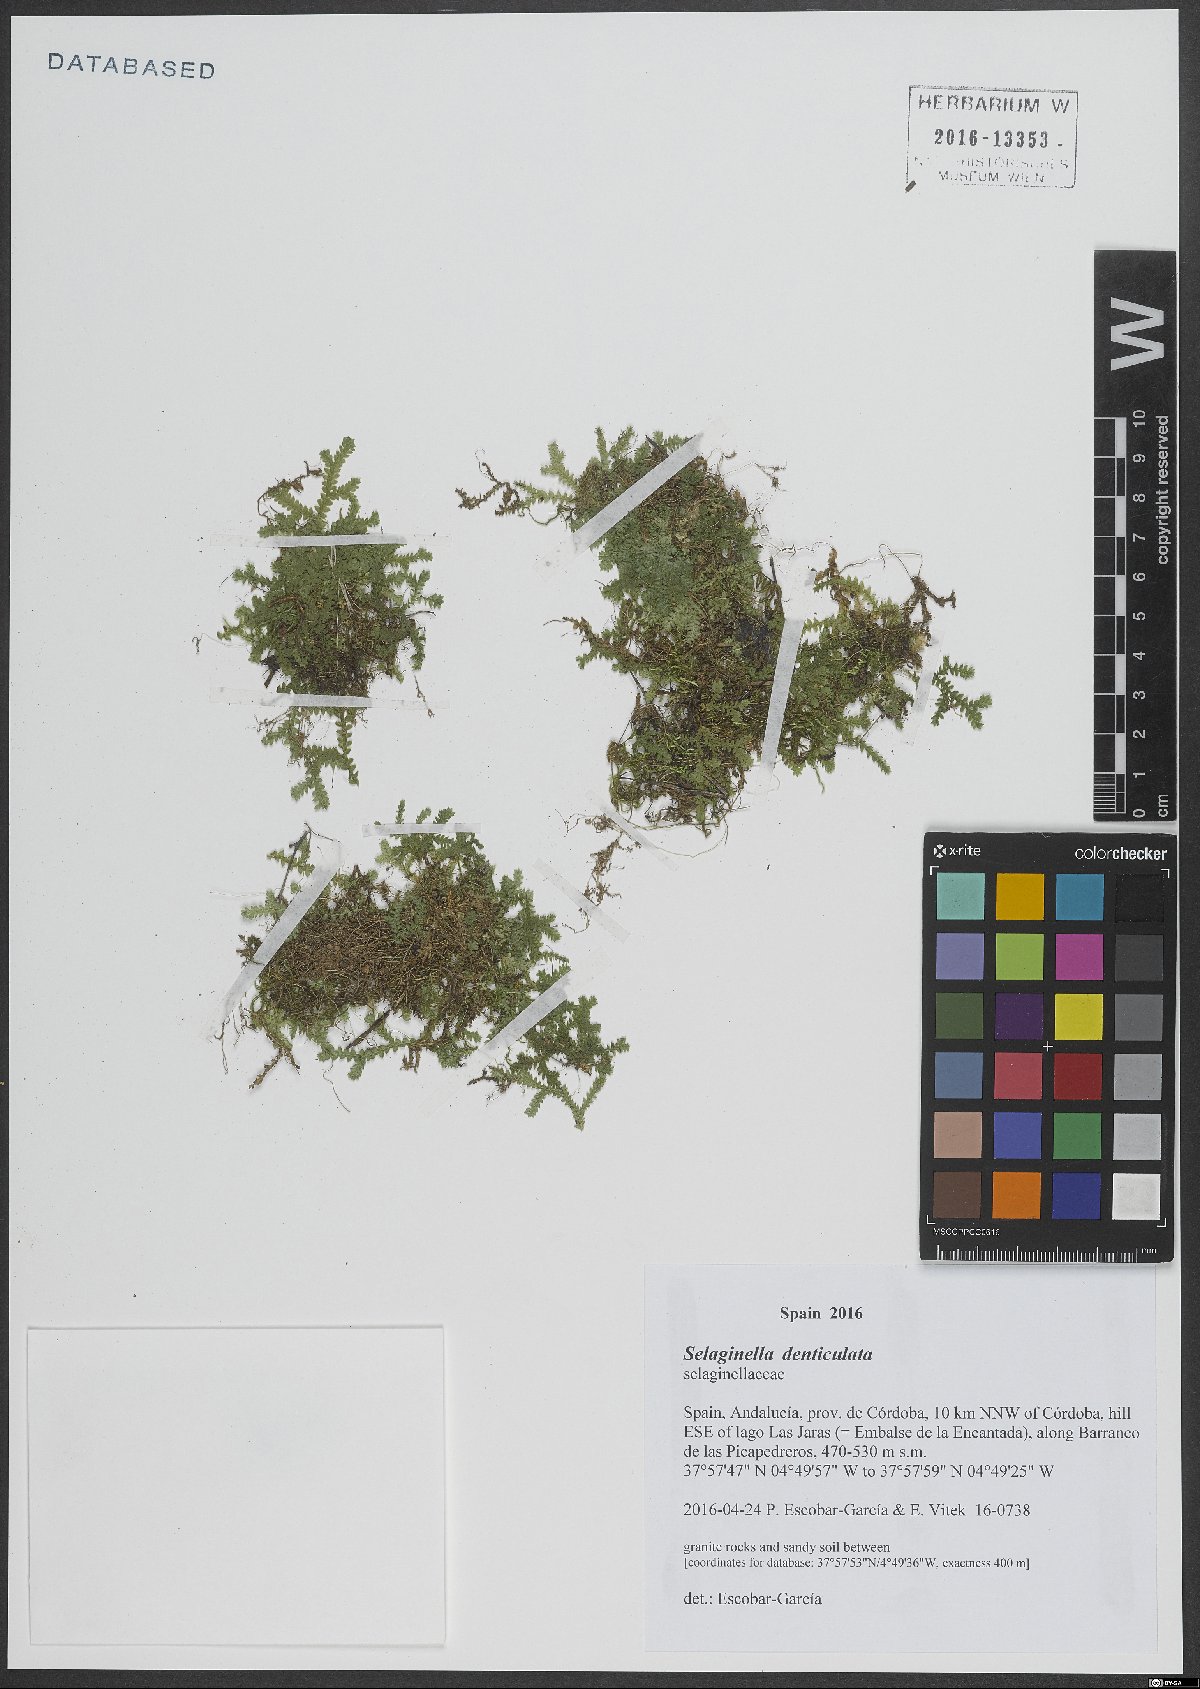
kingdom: Plantae
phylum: Tracheophyta
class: Lycopodiopsida
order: Selaginellales
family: Selaginellaceae
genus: Selaginella
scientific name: Selaginella denticulata
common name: Toothed-leaved clubmoss
